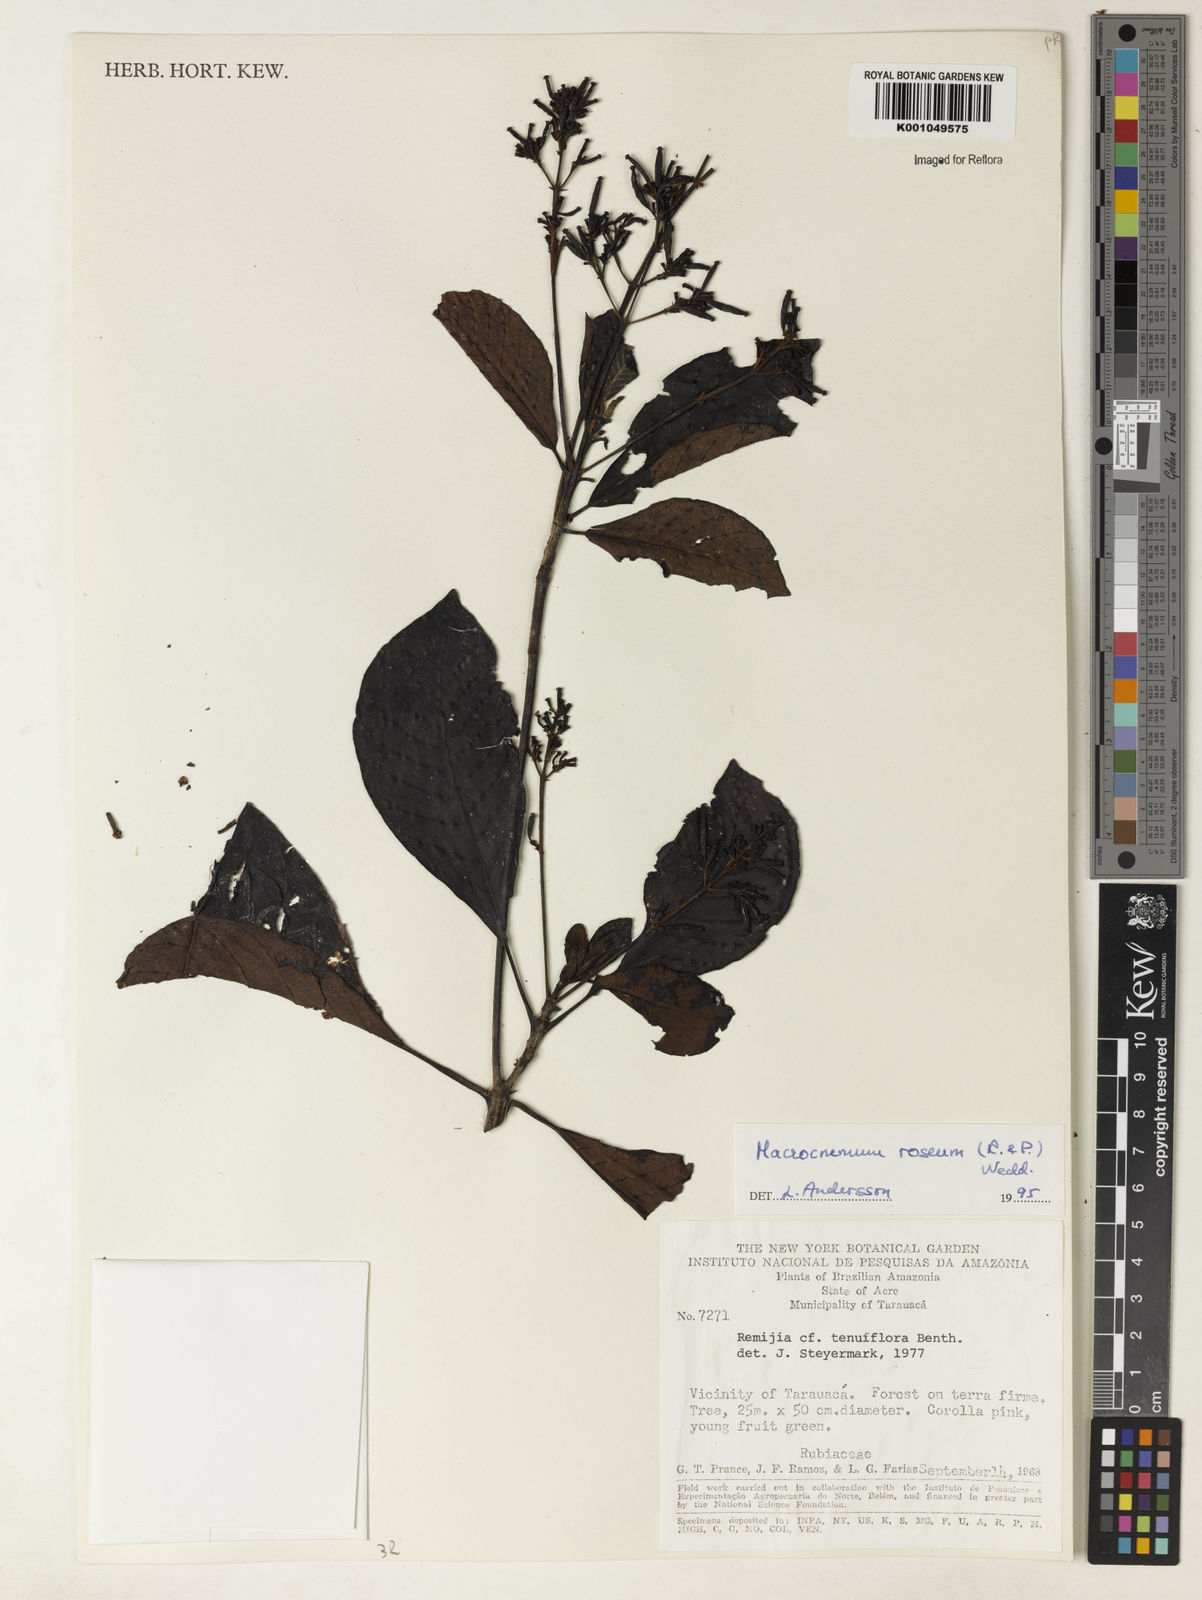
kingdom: Plantae
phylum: Tracheophyta
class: Magnoliopsida
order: Gentianales
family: Rubiaceae
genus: Macrocnemum
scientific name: Macrocnemum roseum
